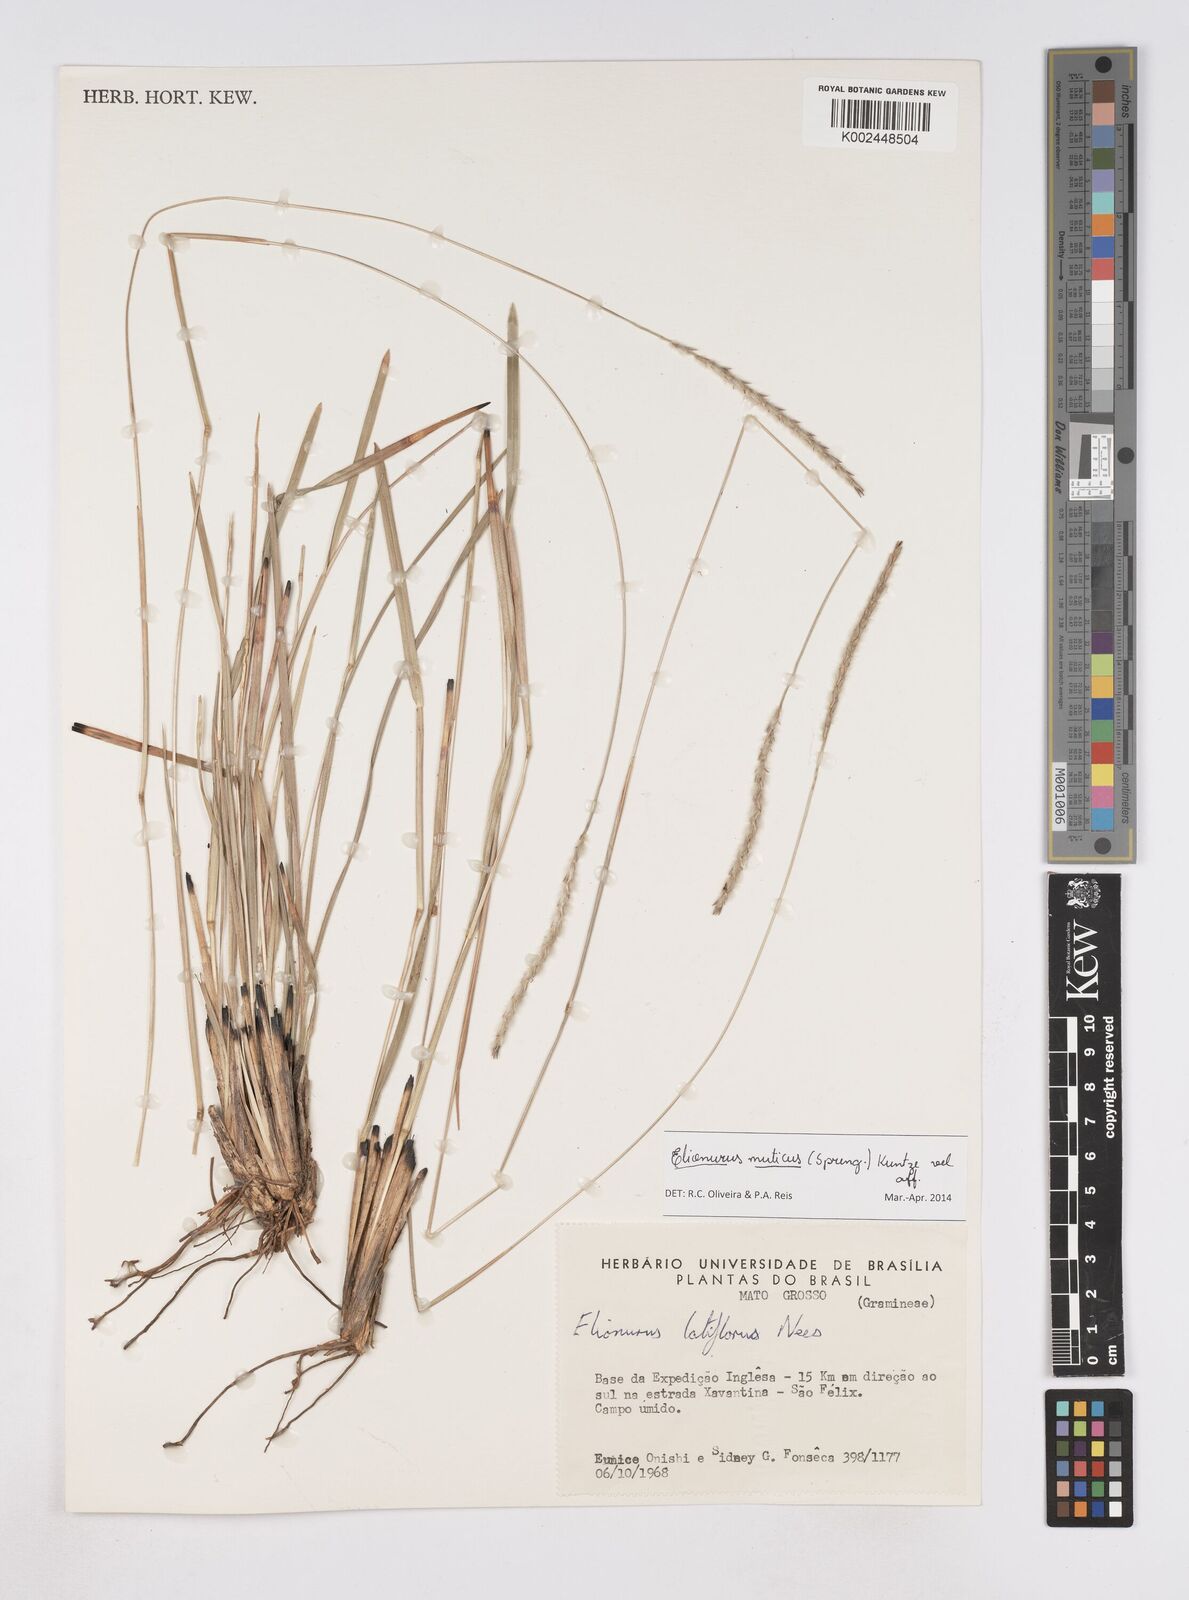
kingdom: Plantae
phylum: Tracheophyta
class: Liliopsida
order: Poales
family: Poaceae
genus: Elionurus
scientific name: Elionurus muticus
